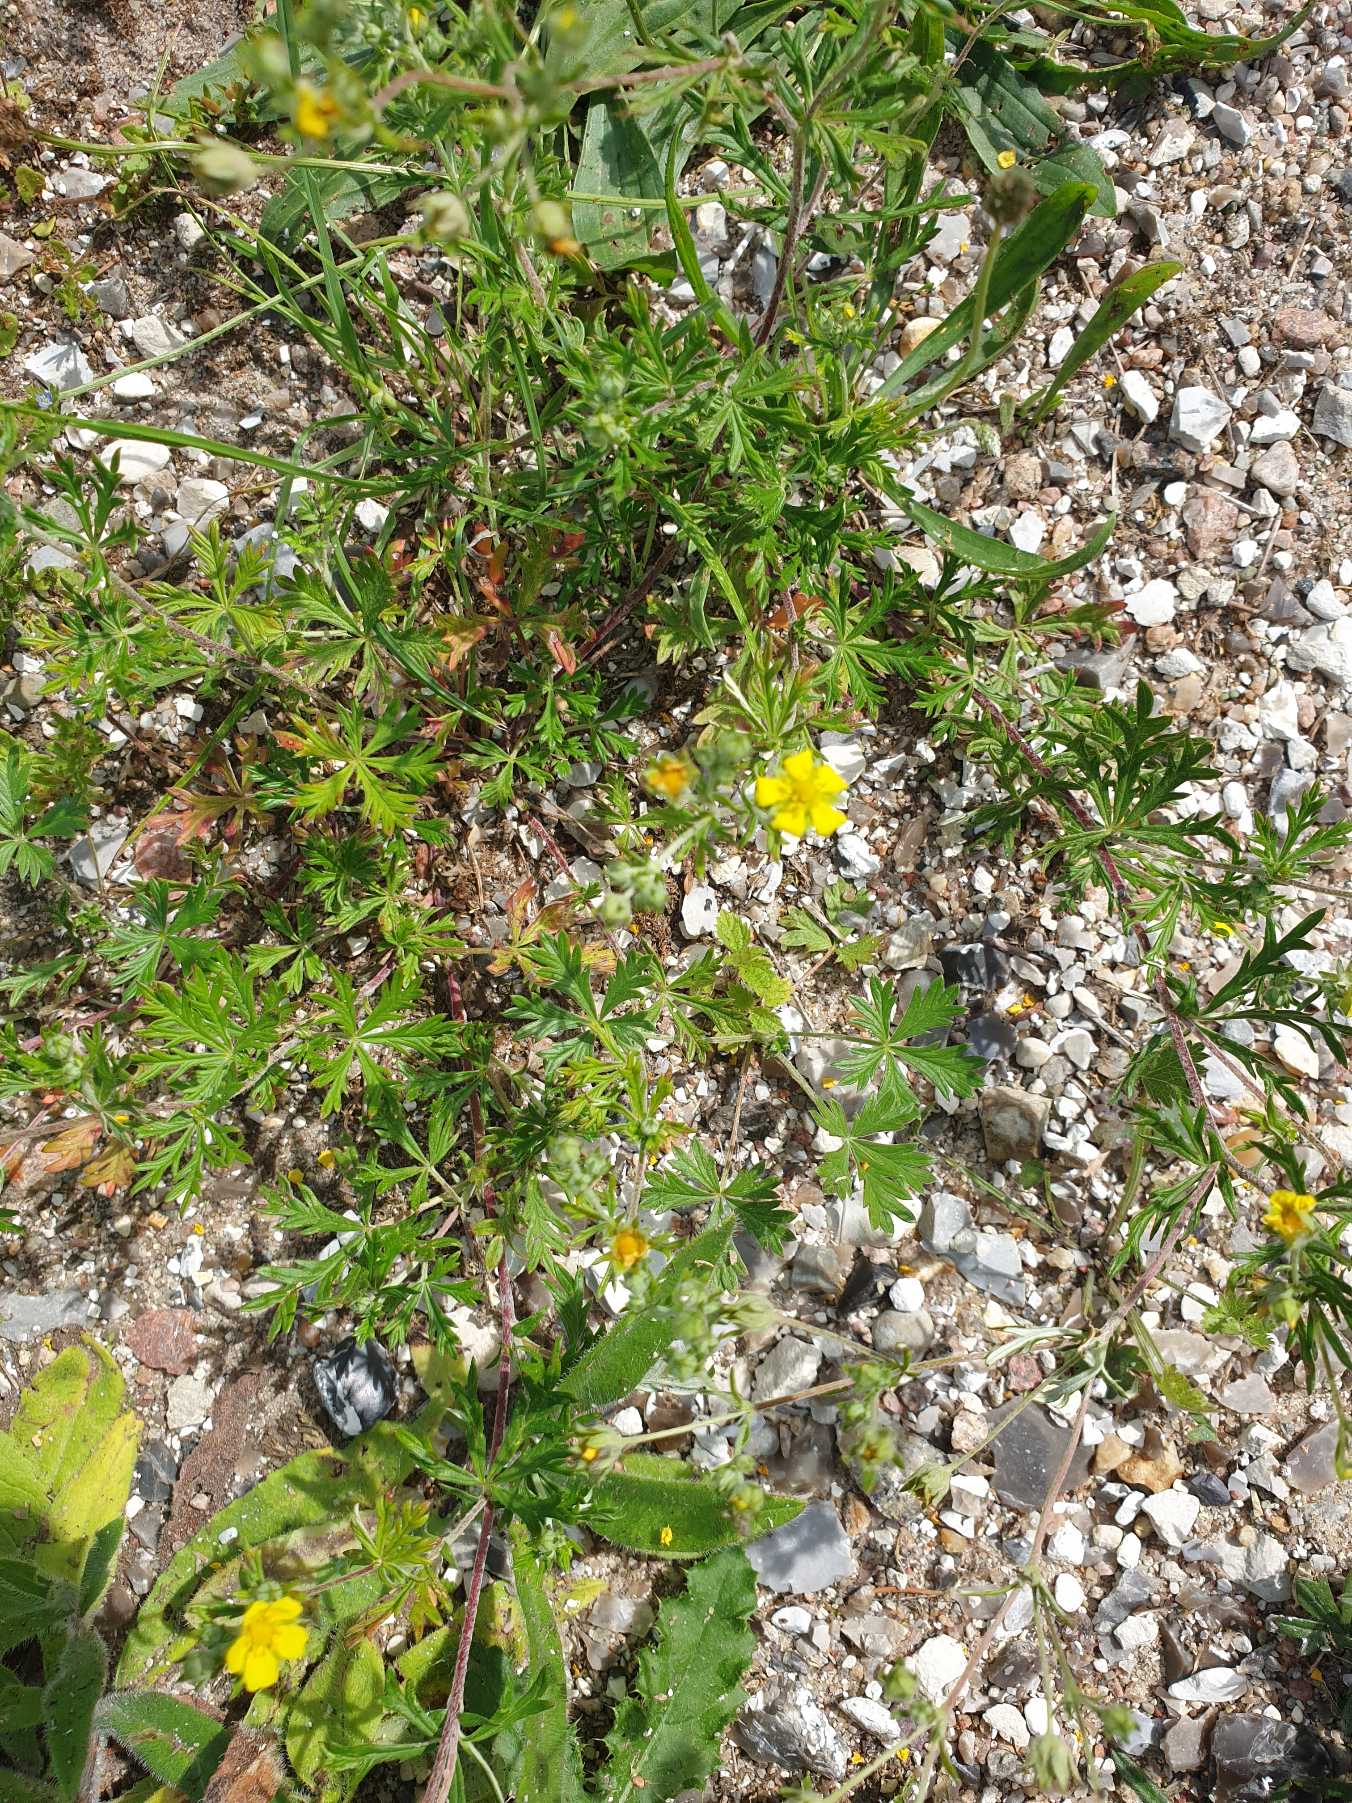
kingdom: Plantae
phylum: Tracheophyta
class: Magnoliopsida
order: Rosales
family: Rosaceae
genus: Potentilla
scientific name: Potentilla argentea
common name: Sølv-potentil
